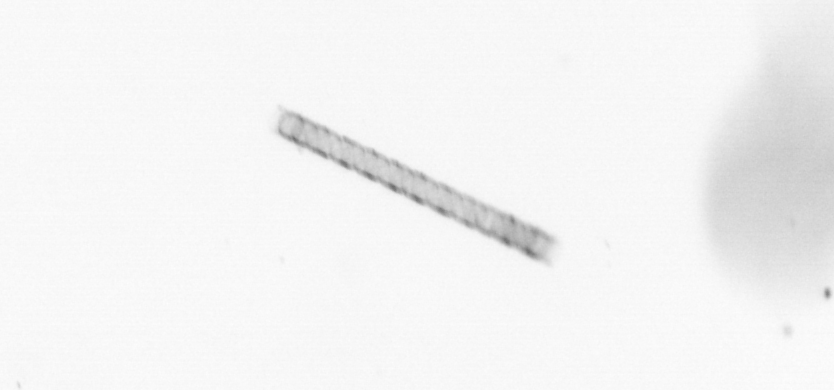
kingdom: Chromista
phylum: Ochrophyta
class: Bacillariophyceae
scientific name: Bacillariophyceae
